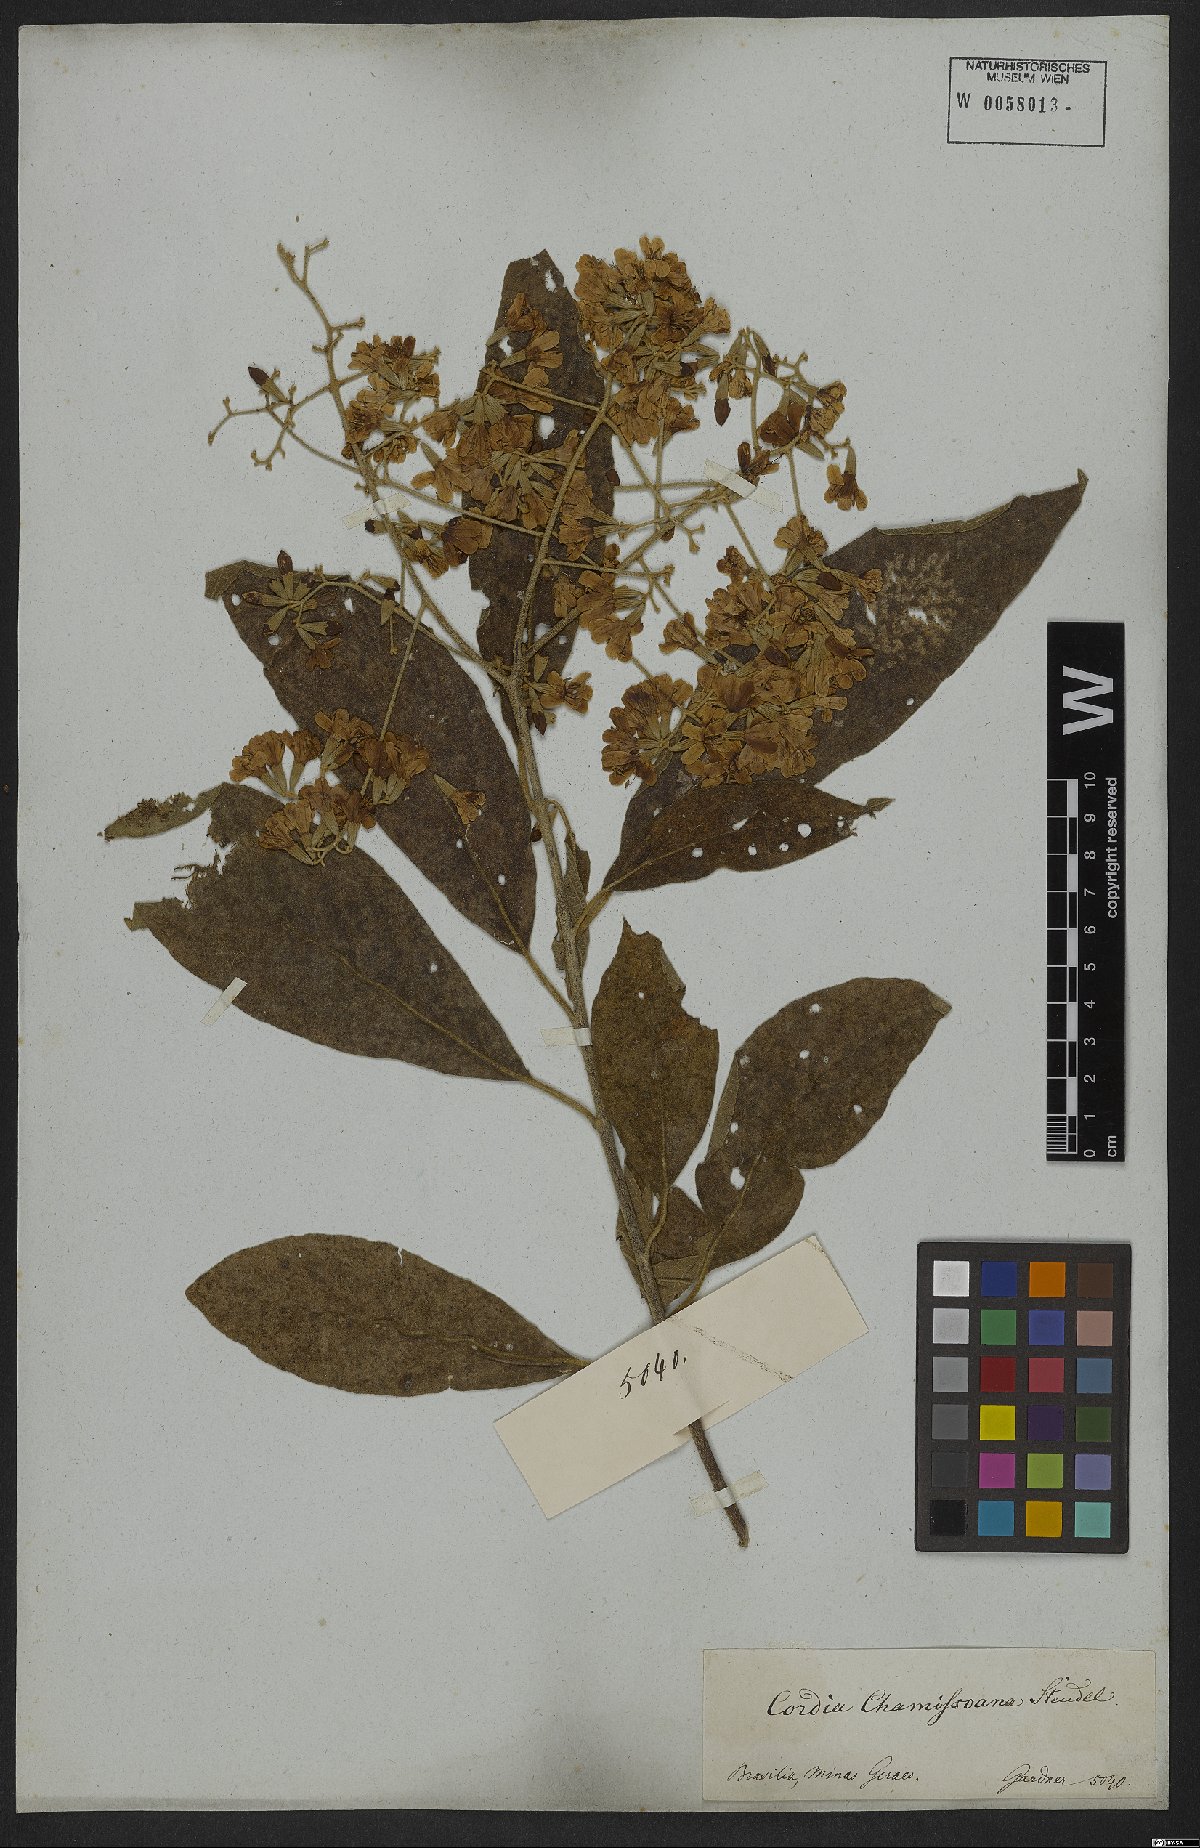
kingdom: Plantae
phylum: Tracheophyta
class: Magnoliopsida
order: Boraginales
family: Cordiaceae
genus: Cordia
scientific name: Cordia chamissoniana
